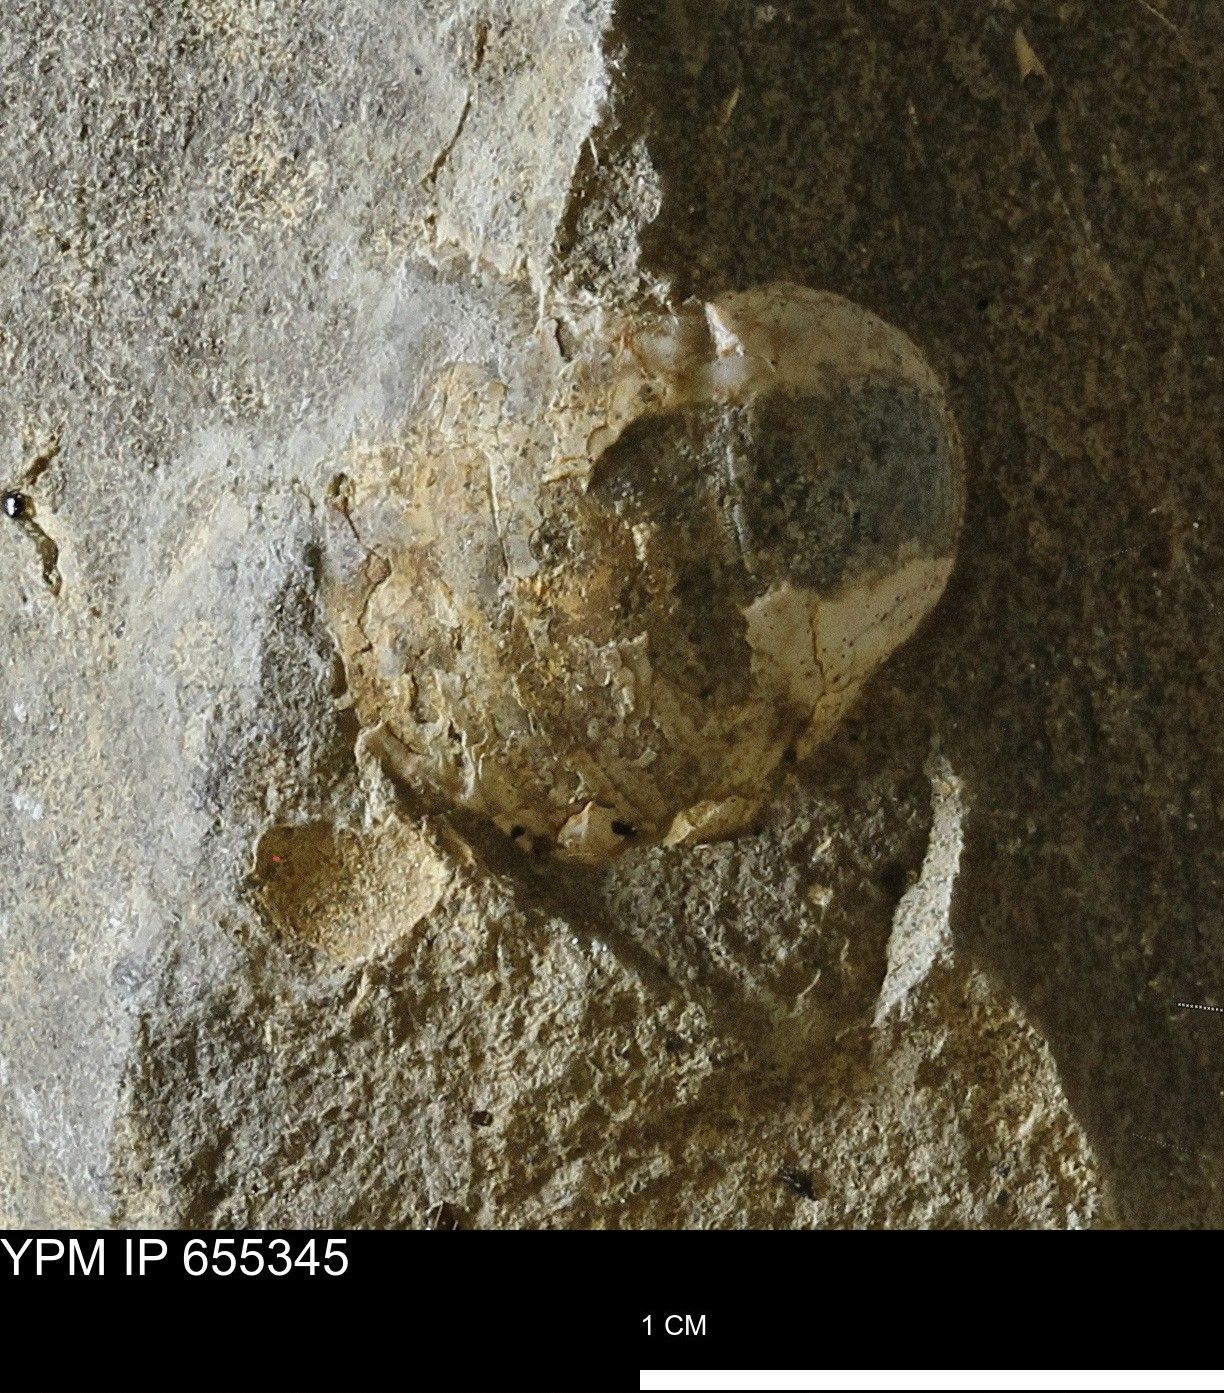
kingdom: Animalia
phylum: Mollusca
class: Bivalvia
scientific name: Bivalvia
